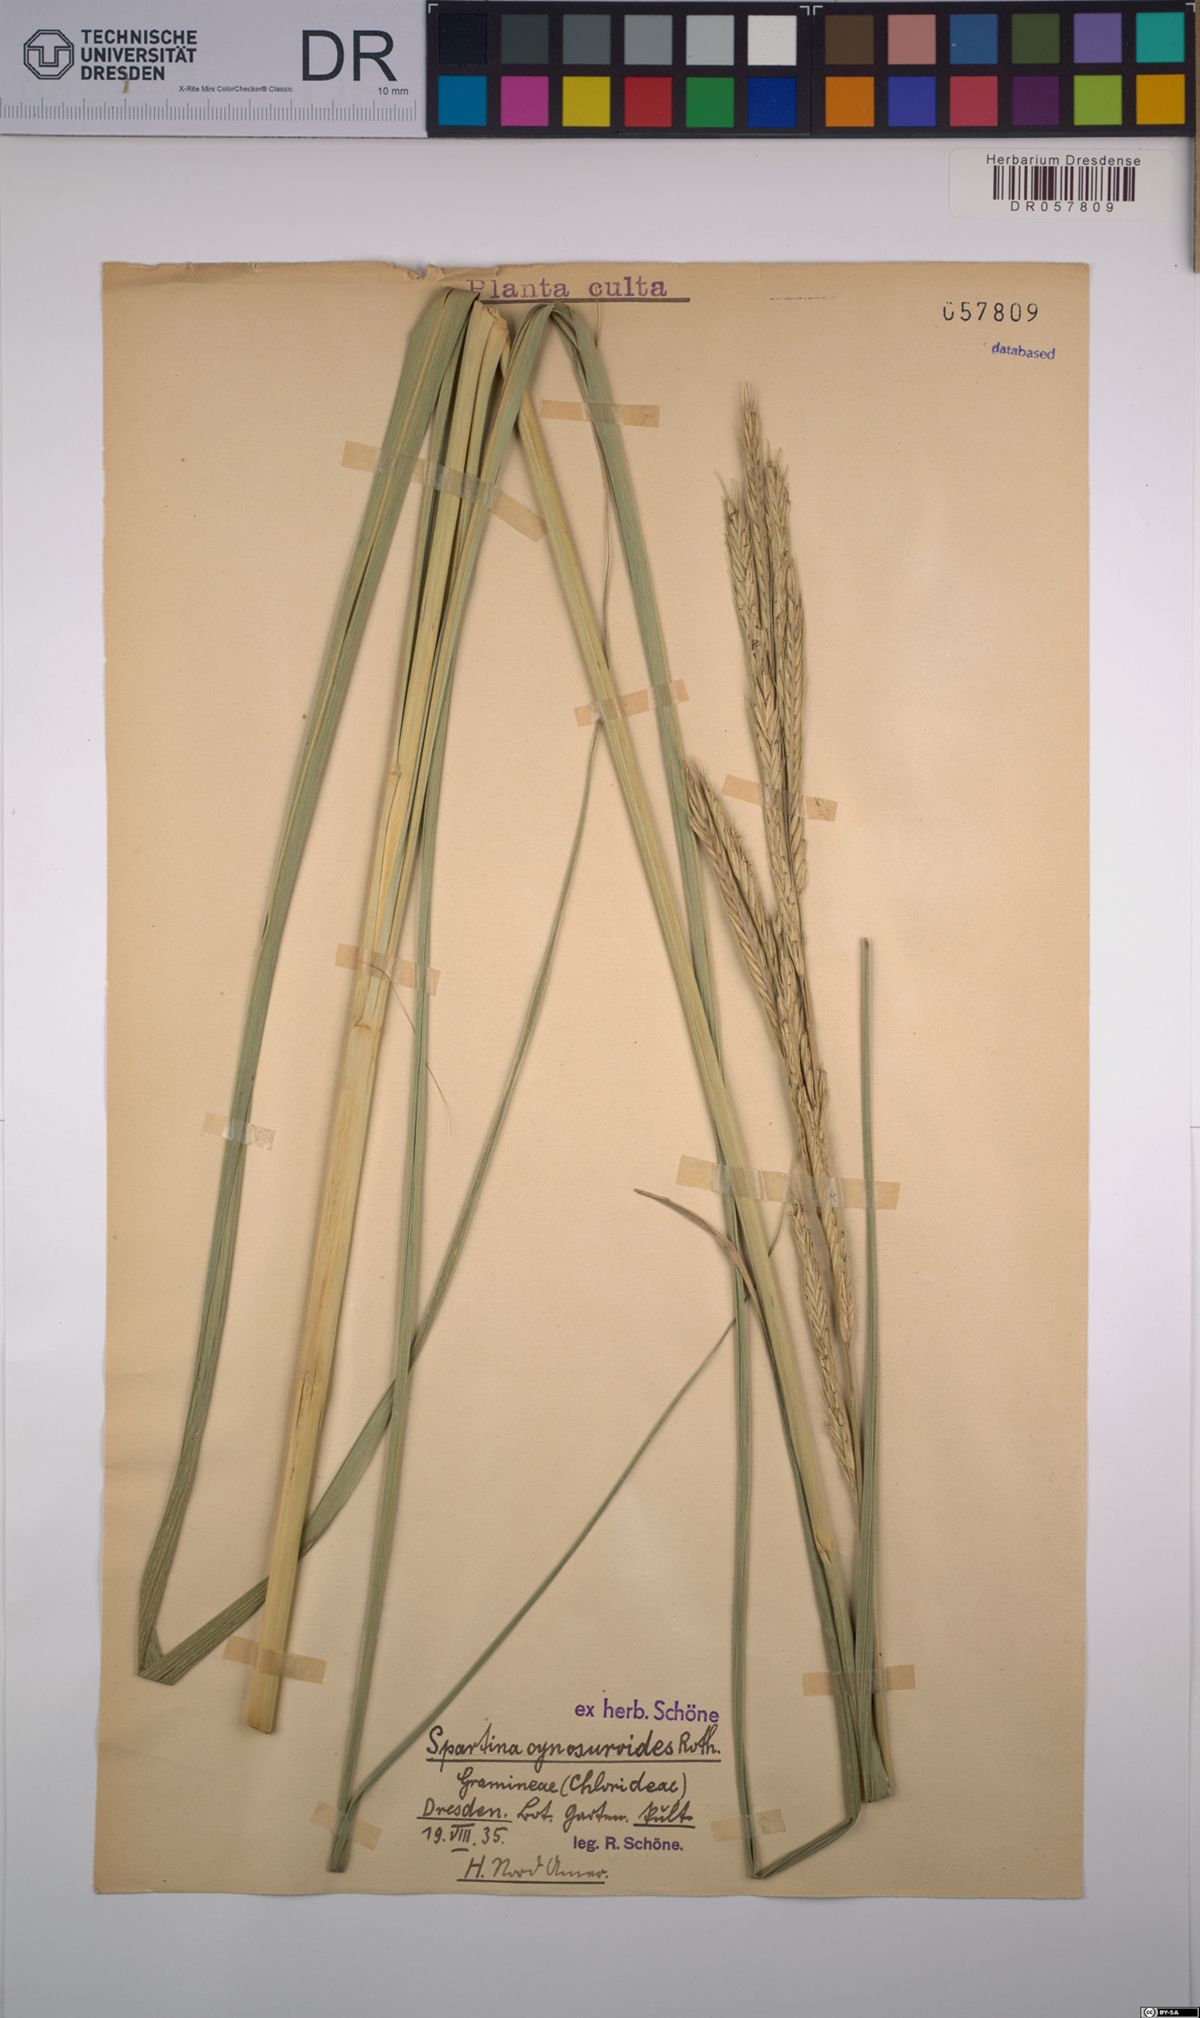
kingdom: Plantae
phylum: Tracheophyta
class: Liliopsida
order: Poales
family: Poaceae
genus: Sporobolus
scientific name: Sporobolus cynosuroides
